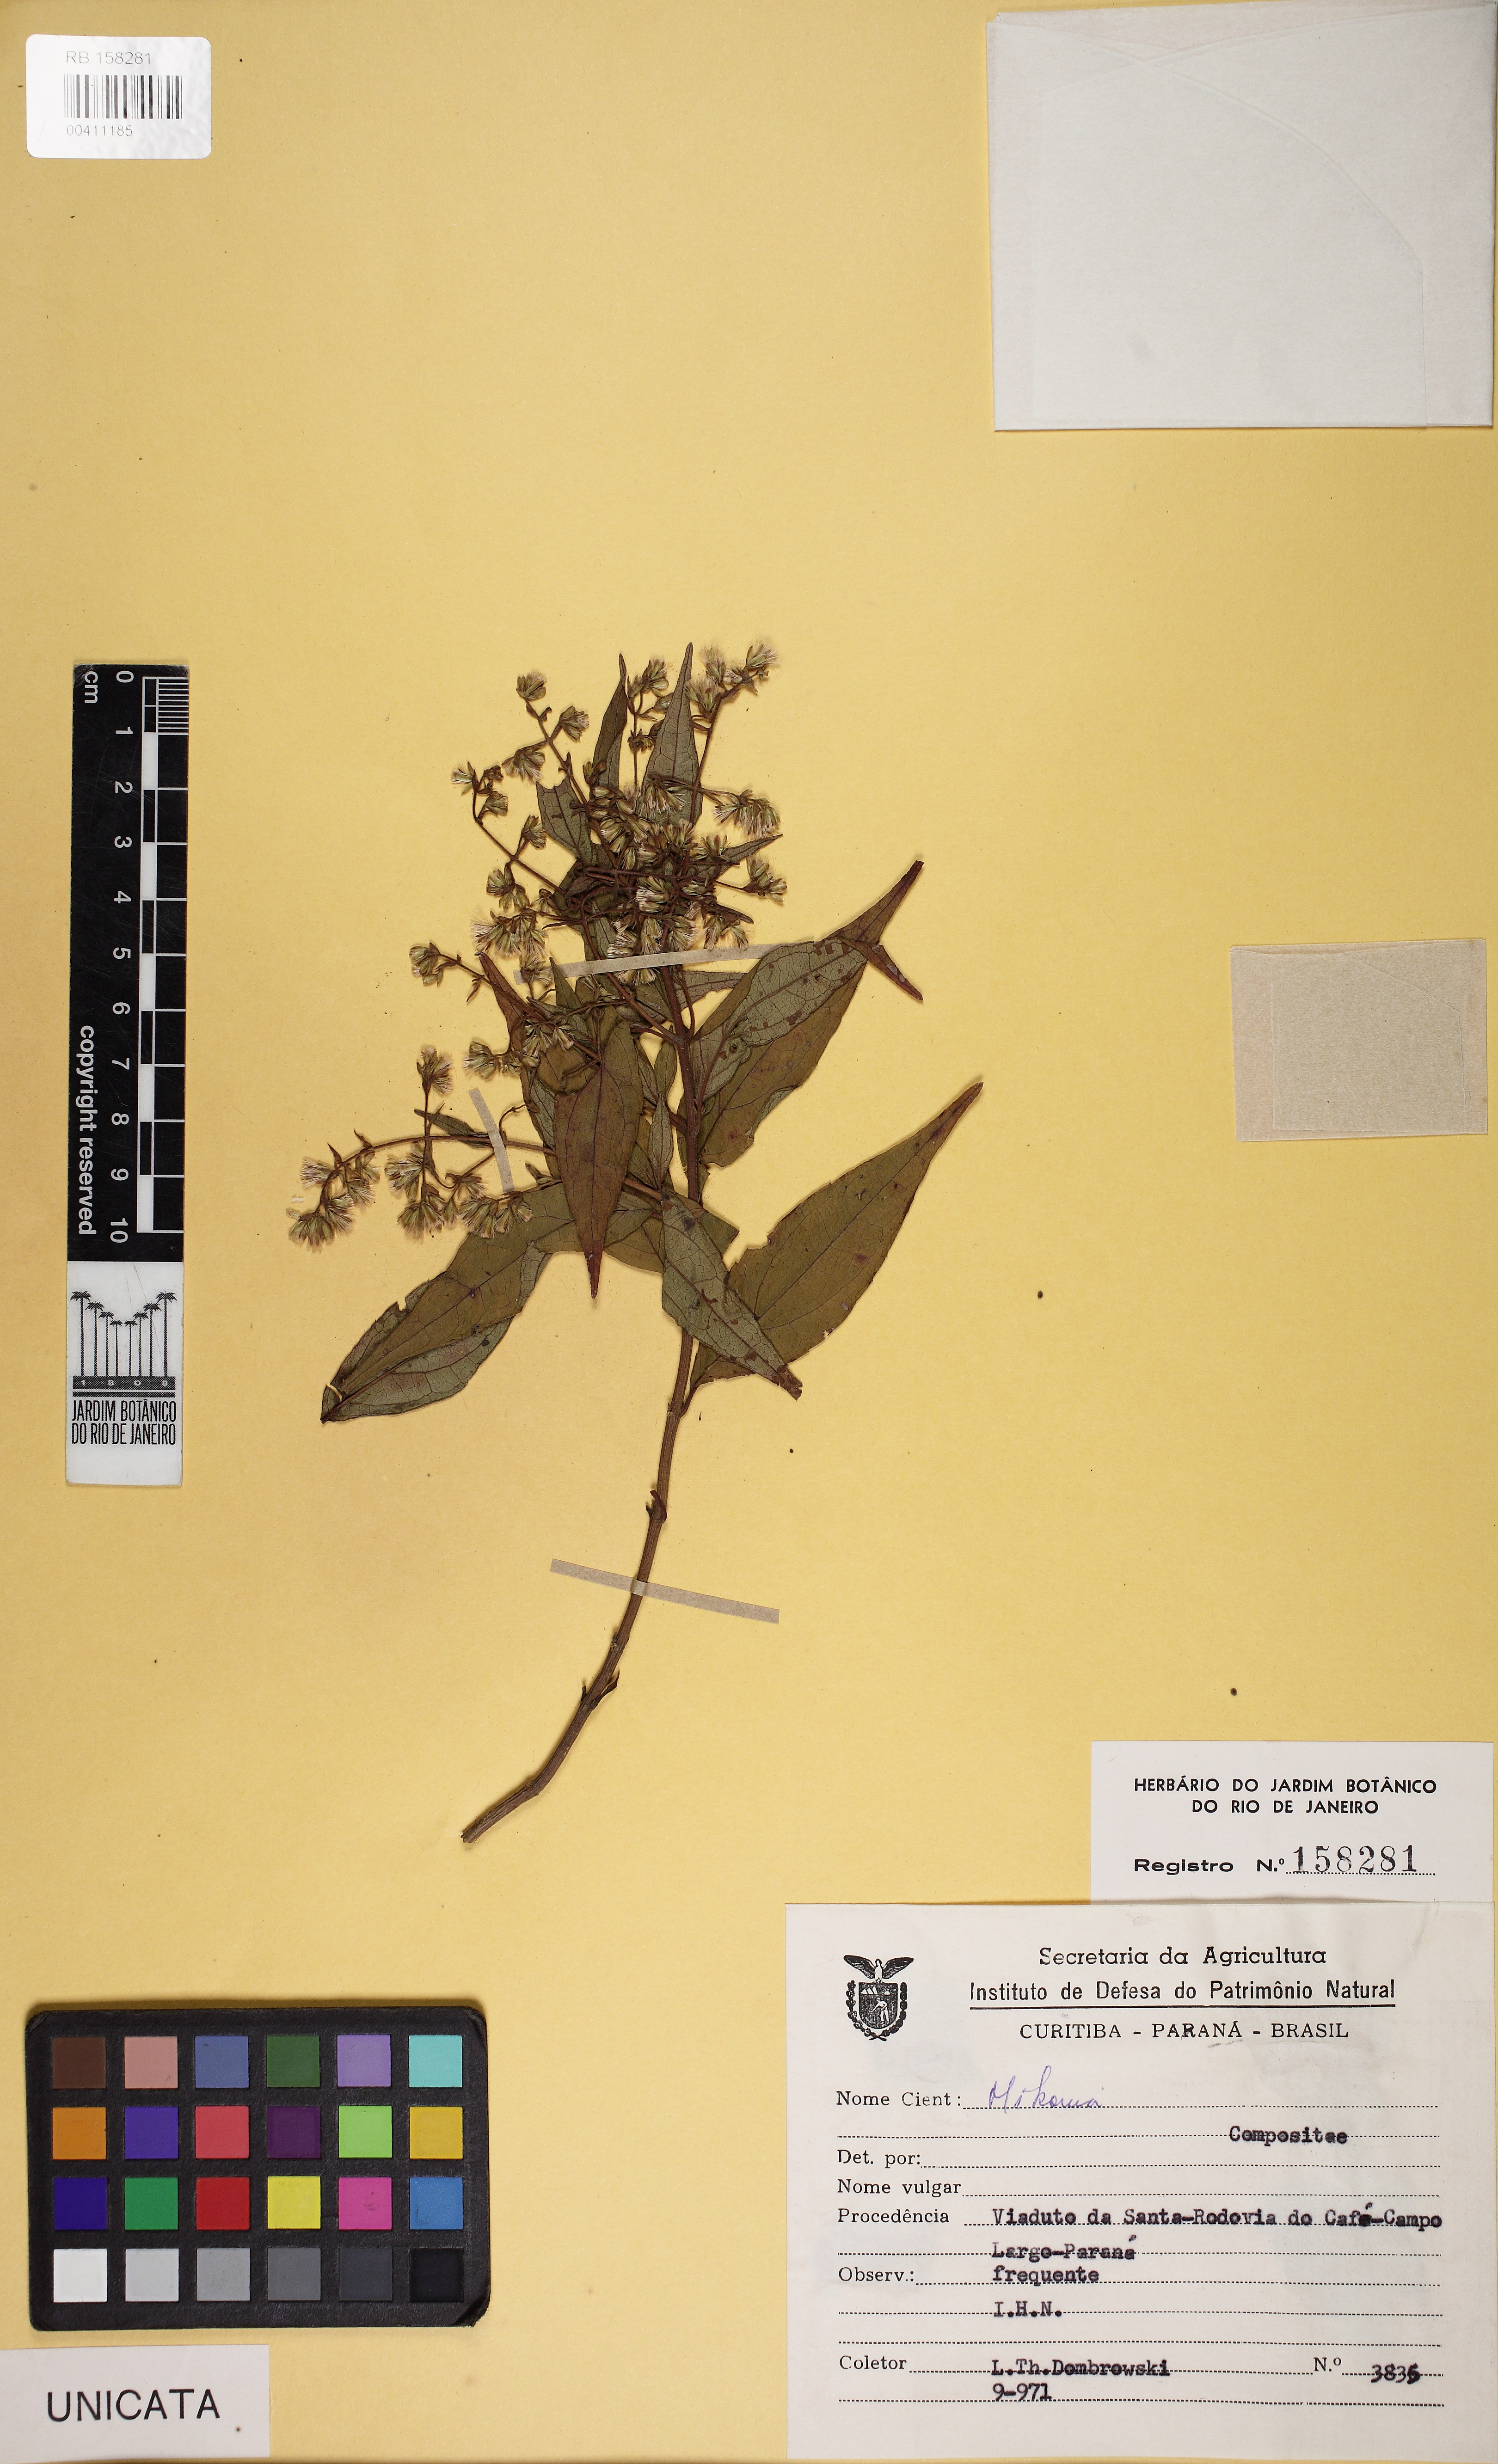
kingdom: Plantae
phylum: Tracheophyta
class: Magnoliopsida
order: Asterales
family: Asteraceae
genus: Mikania
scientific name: Mikania
